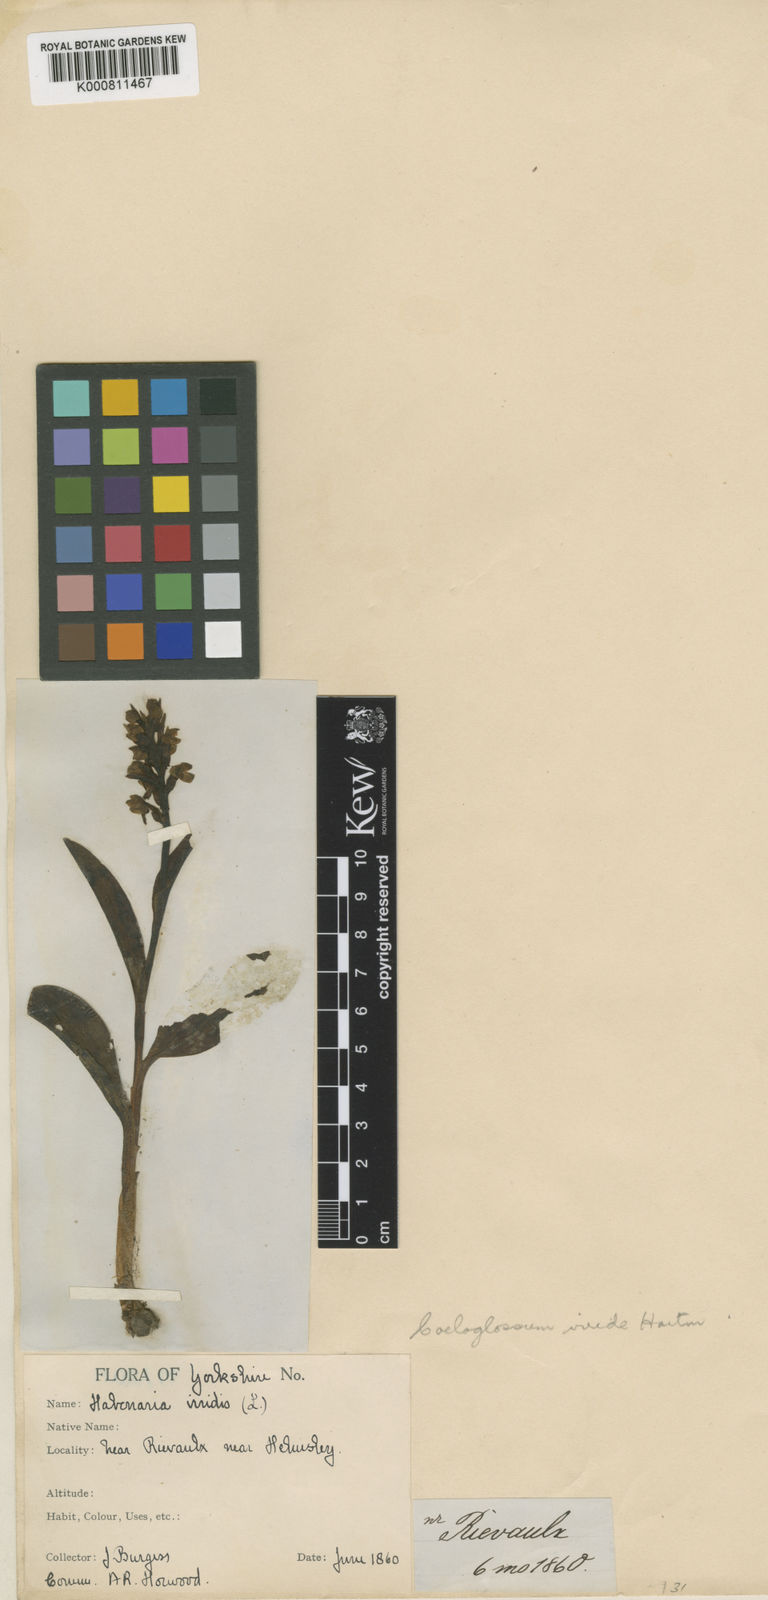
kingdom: Plantae
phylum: Tracheophyta
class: Liliopsida
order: Asparagales
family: Orchidaceae
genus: Dactylorhiza
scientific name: Dactylorhiza viridis
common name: Longbract frog orchid
